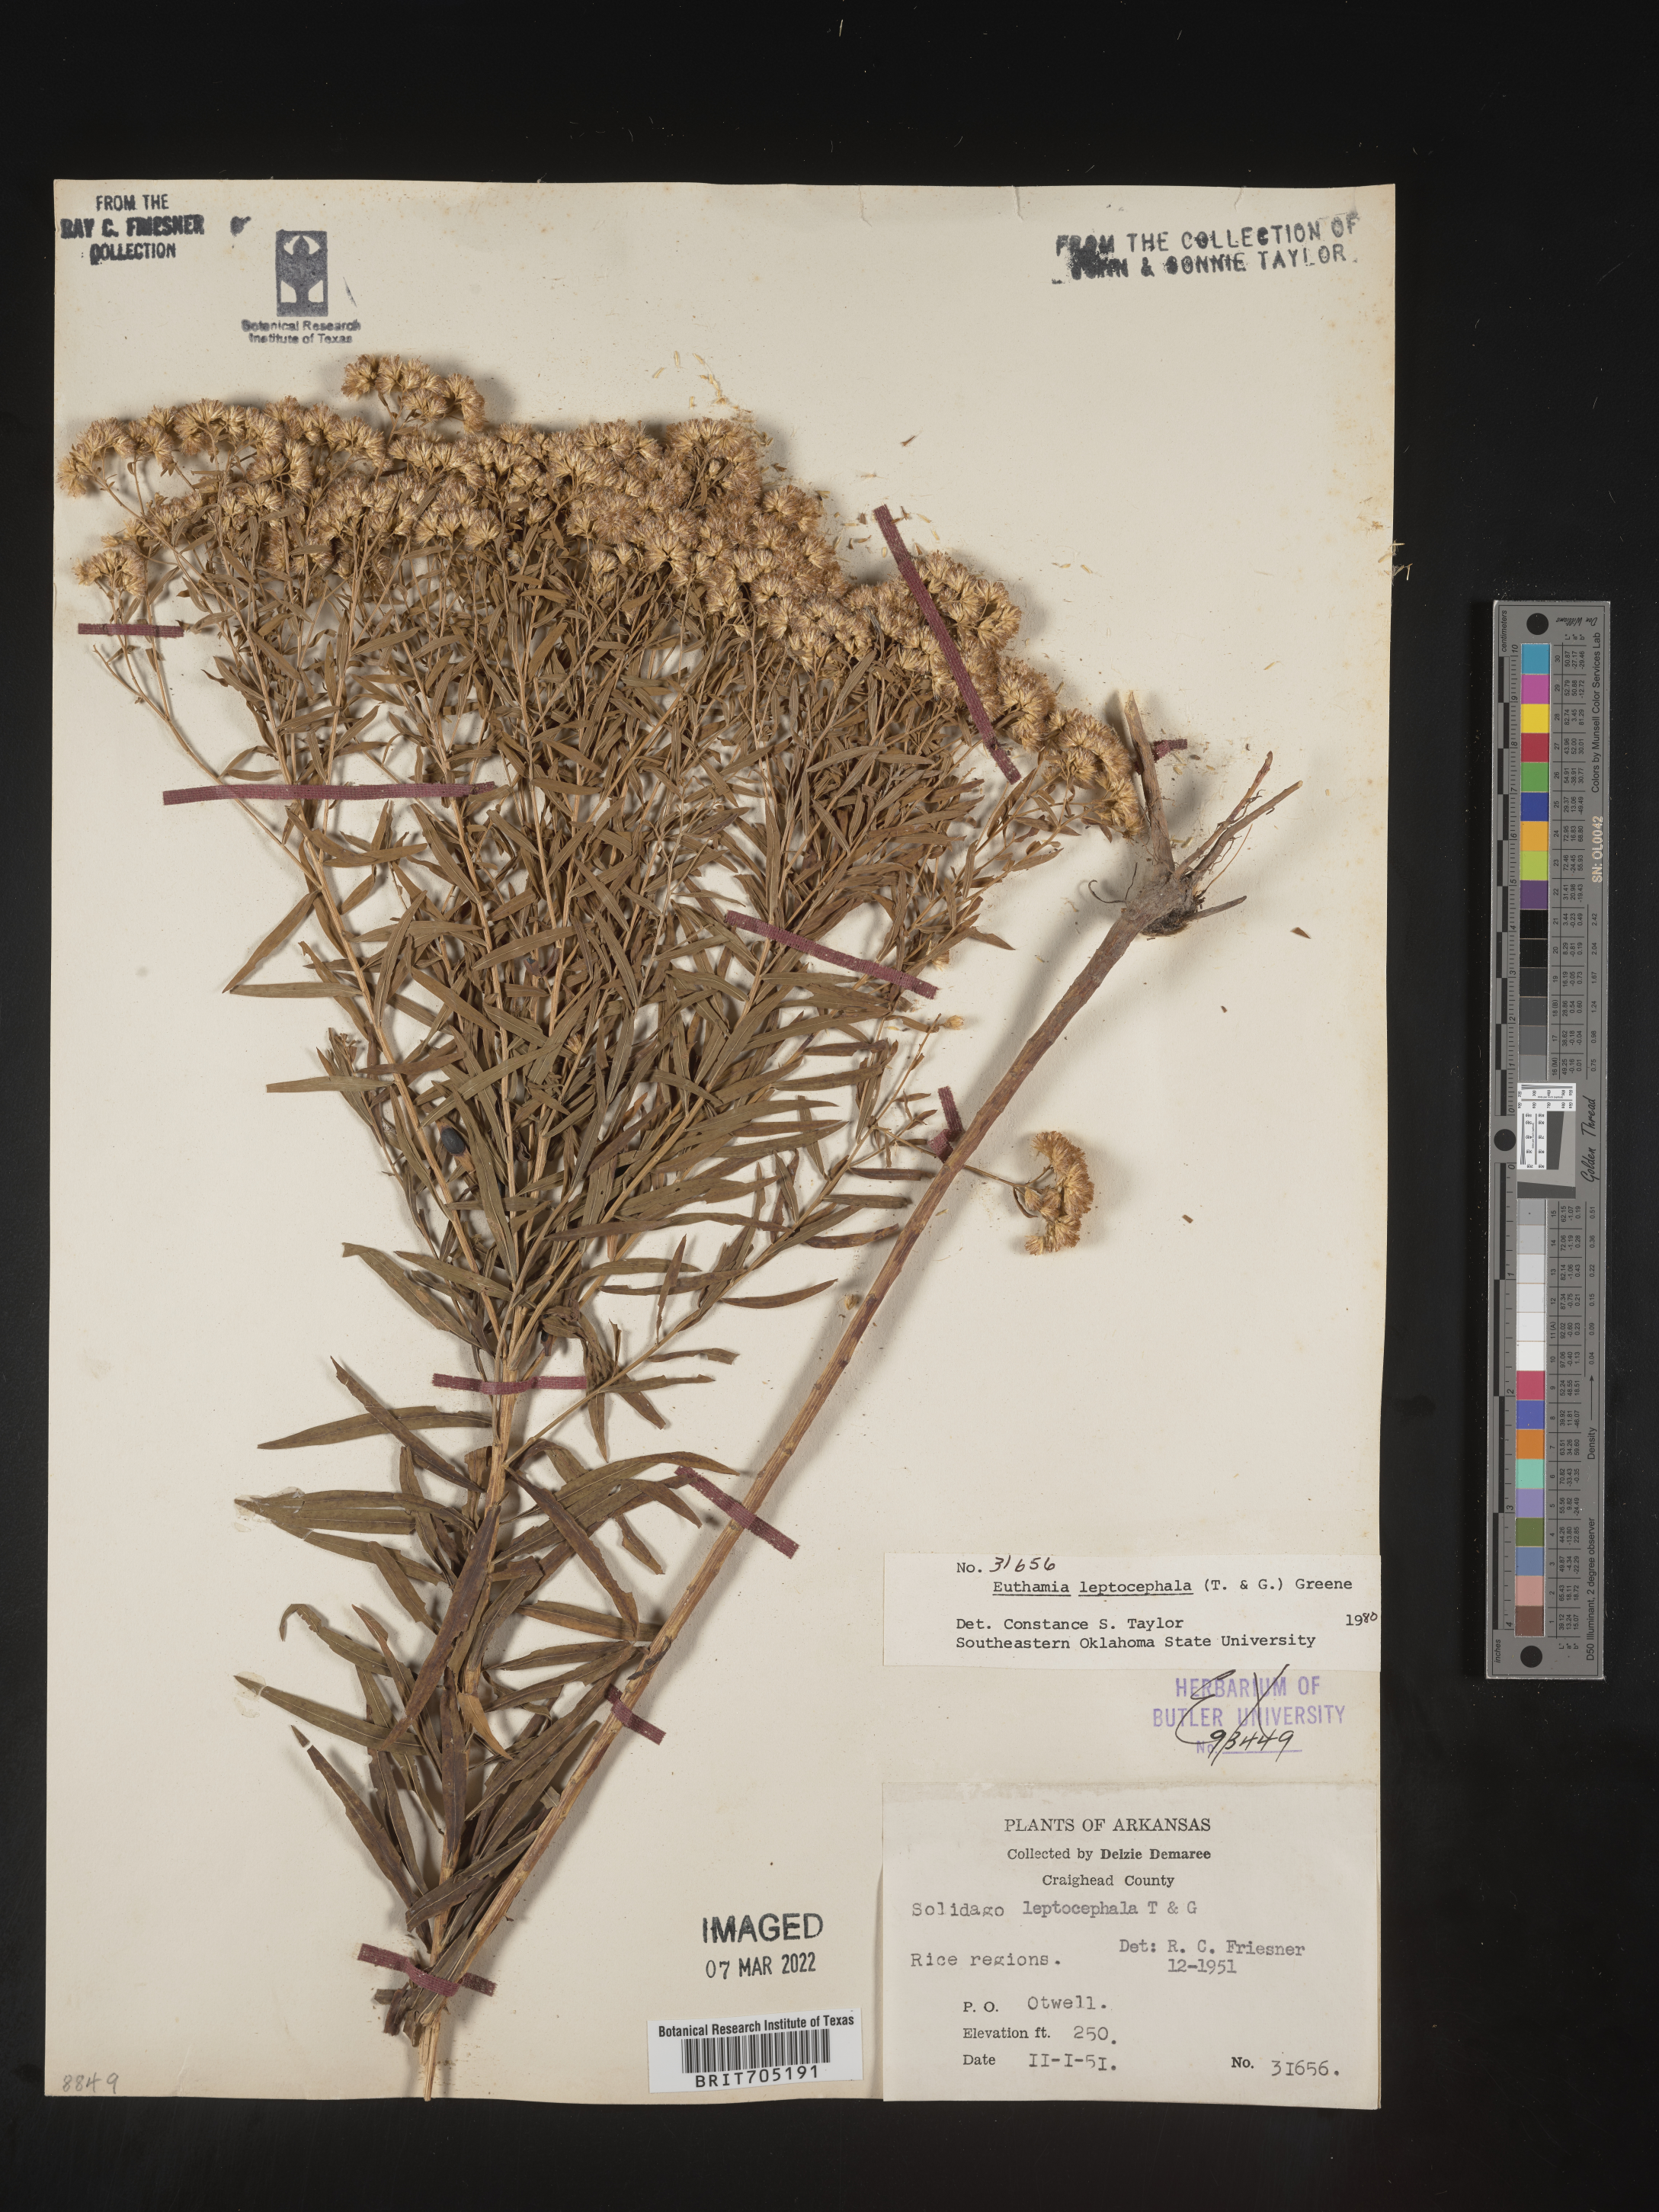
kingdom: Plantae
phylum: Tracheophyta
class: Magnoliopsida
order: Asterales
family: Asteraceae
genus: Euthamia
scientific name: Euthamia leptocephala
